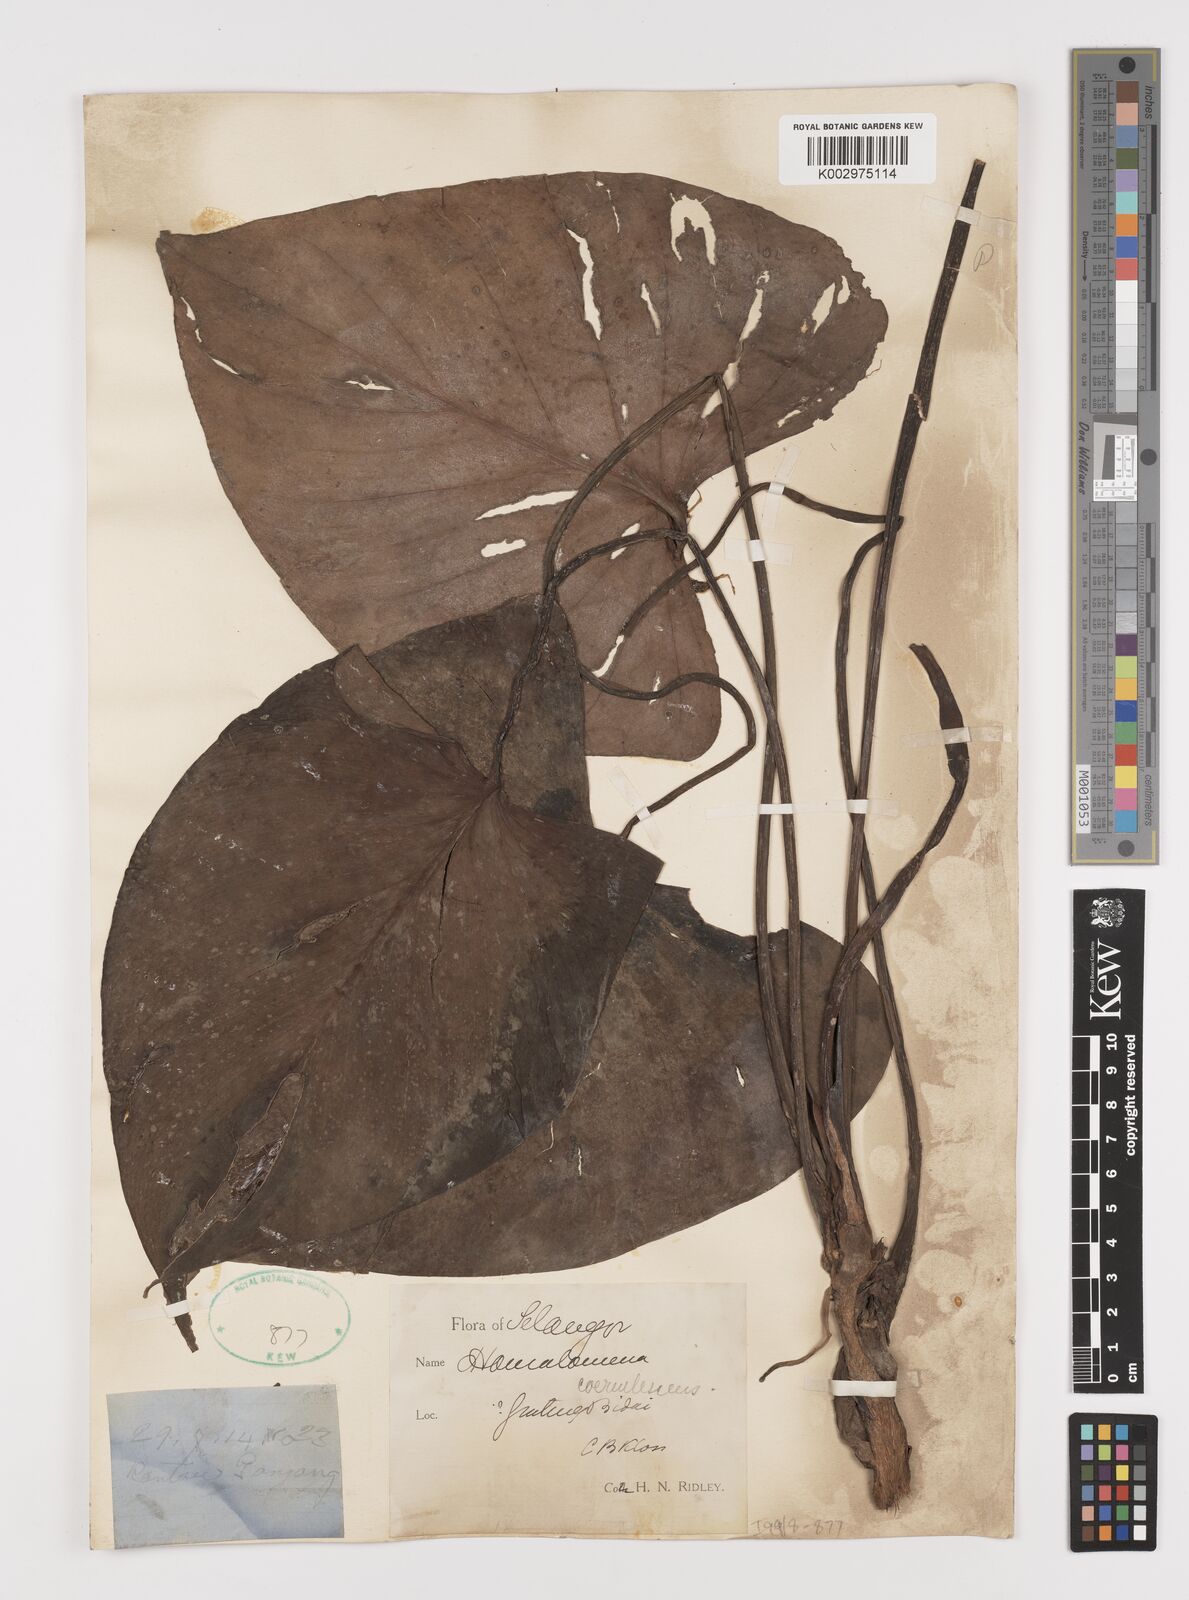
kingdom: Plantae
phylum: Tracheophyta
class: Liliopsida
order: Alismatales
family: Araceae
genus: Homalomena
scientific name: Homalomena pendula
